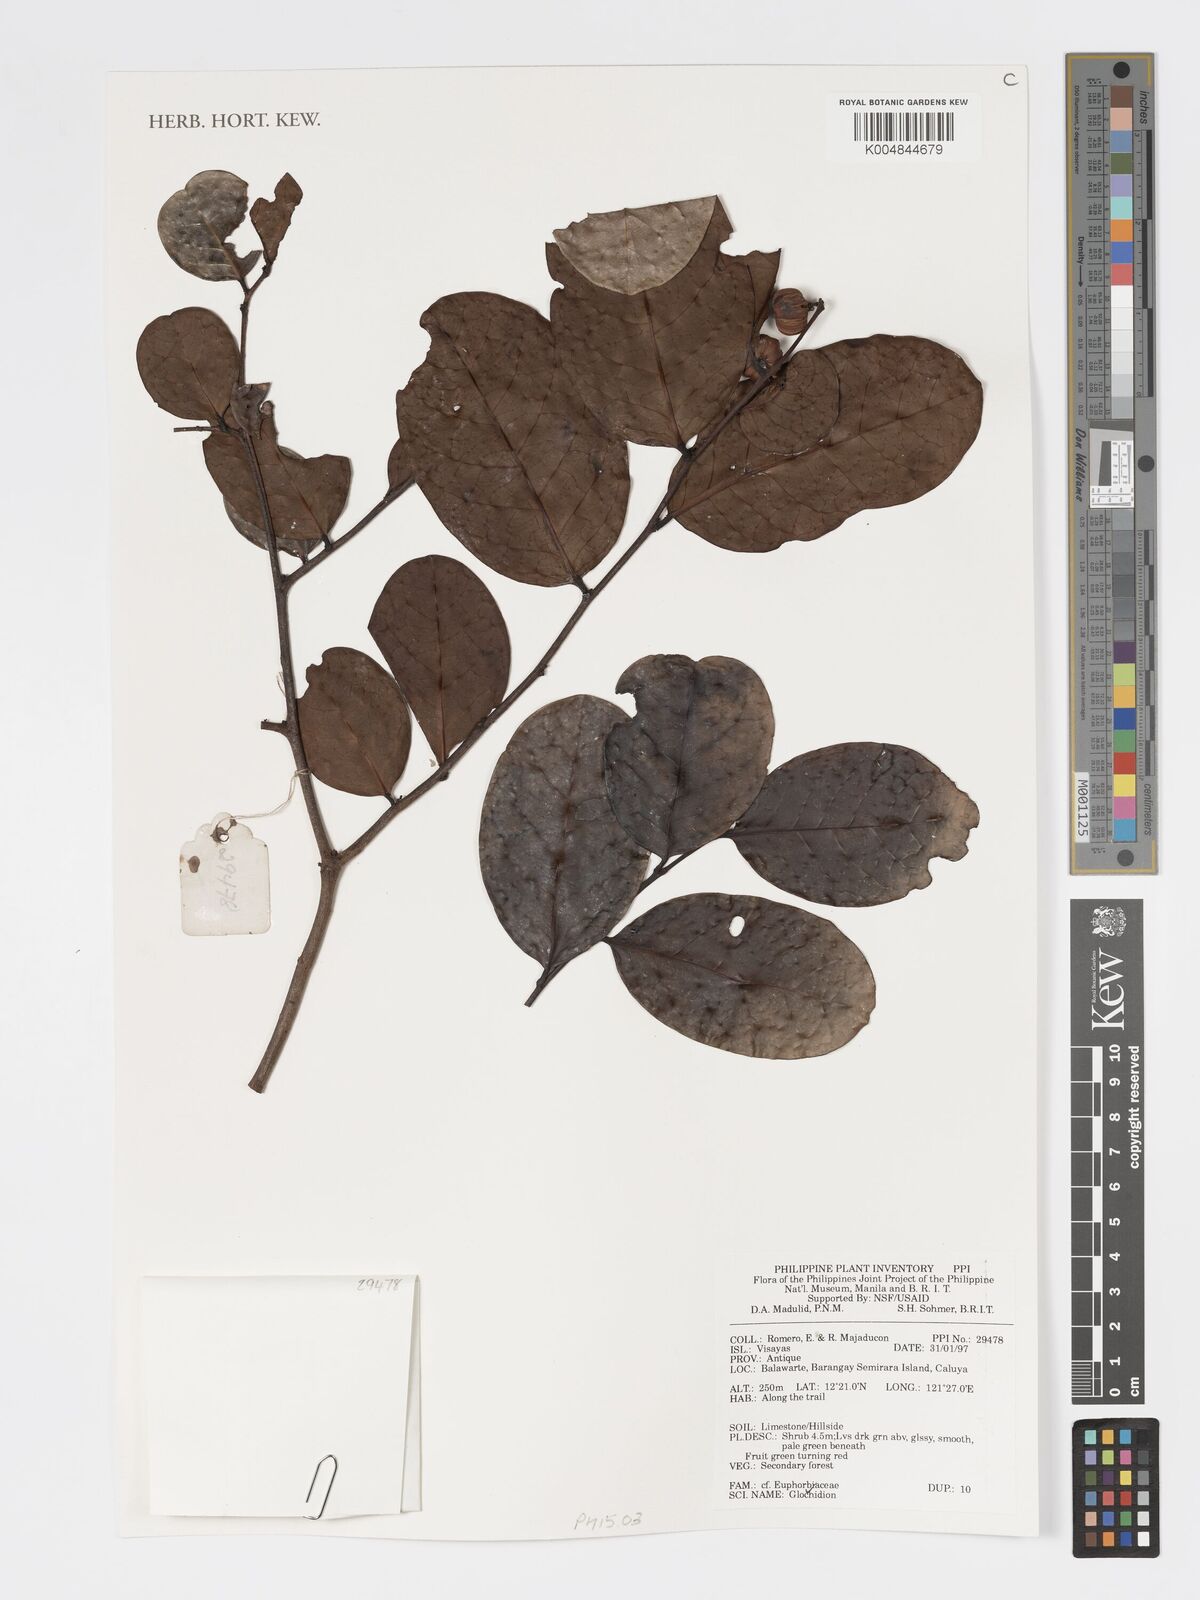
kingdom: Plantae
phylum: Tracheophyta
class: Magnoliopsida
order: Malpighiales
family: Phyllanthaceae
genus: Glochidion
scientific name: Glochidion
